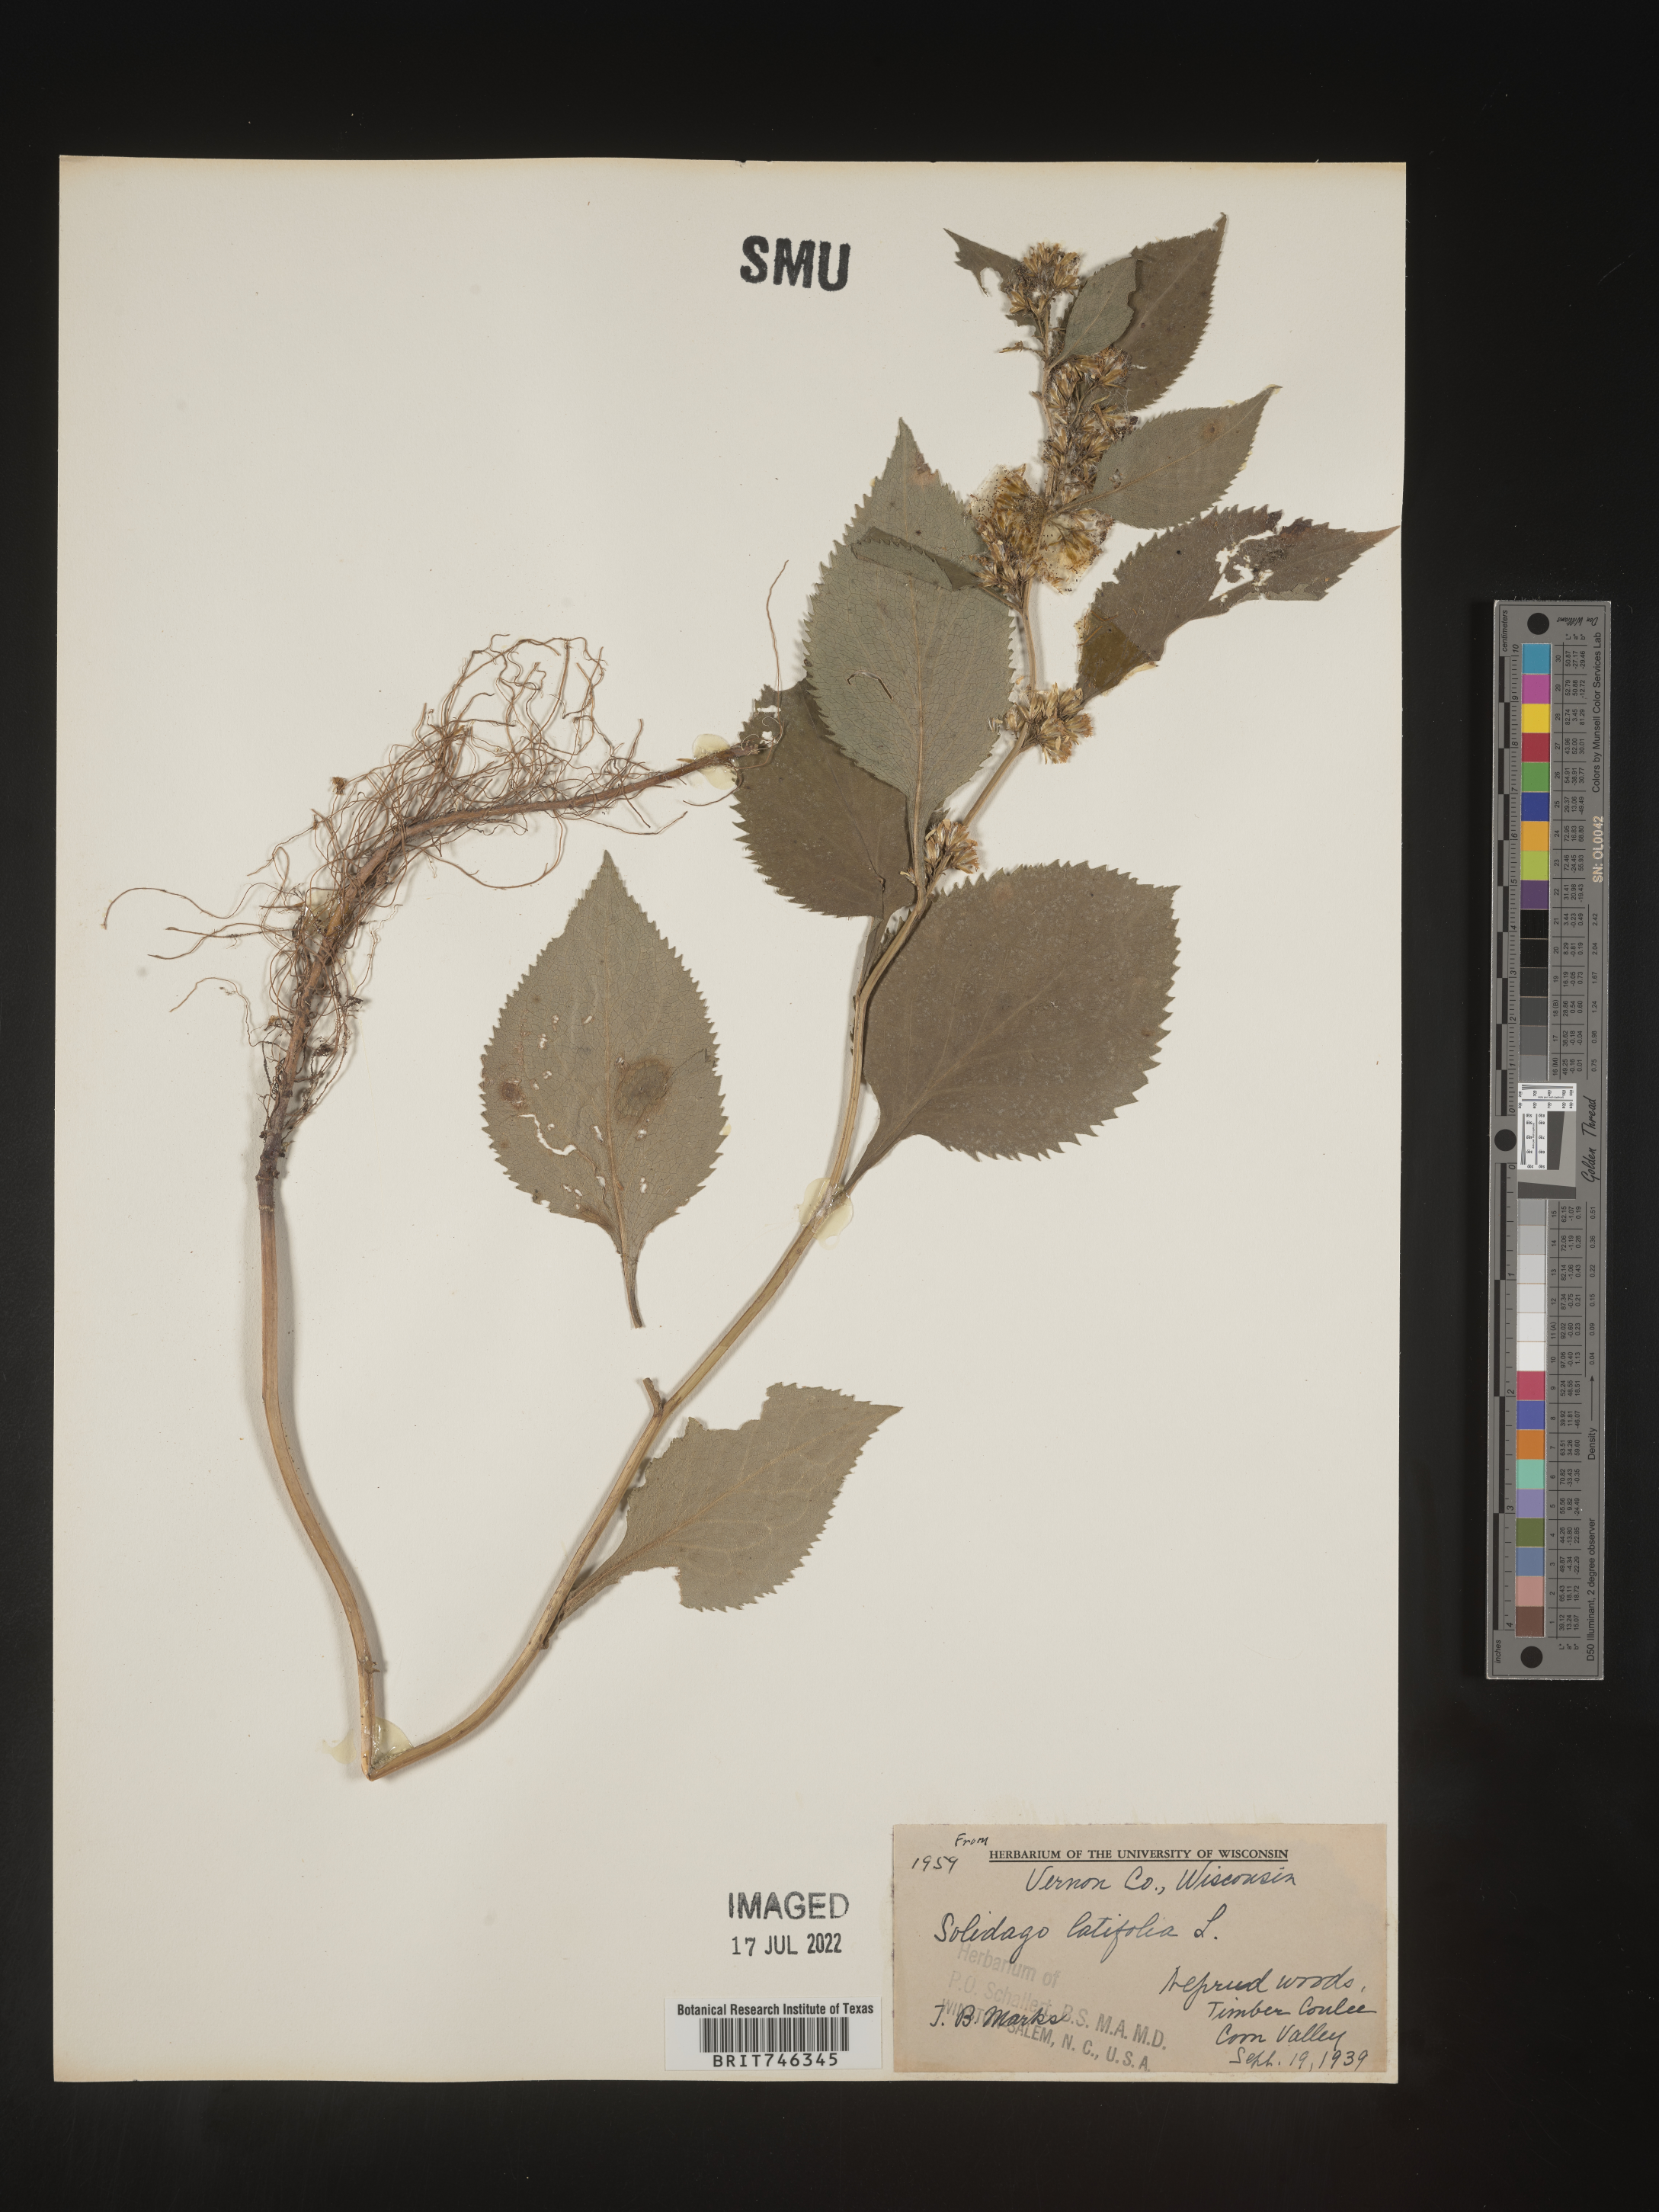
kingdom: Plantae
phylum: Tracheophyta
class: Magnoliopsida
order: Asterales
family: Asteraceae
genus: Solidago
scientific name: Solidago flexicaulis
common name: Zig-zag goldenrod
